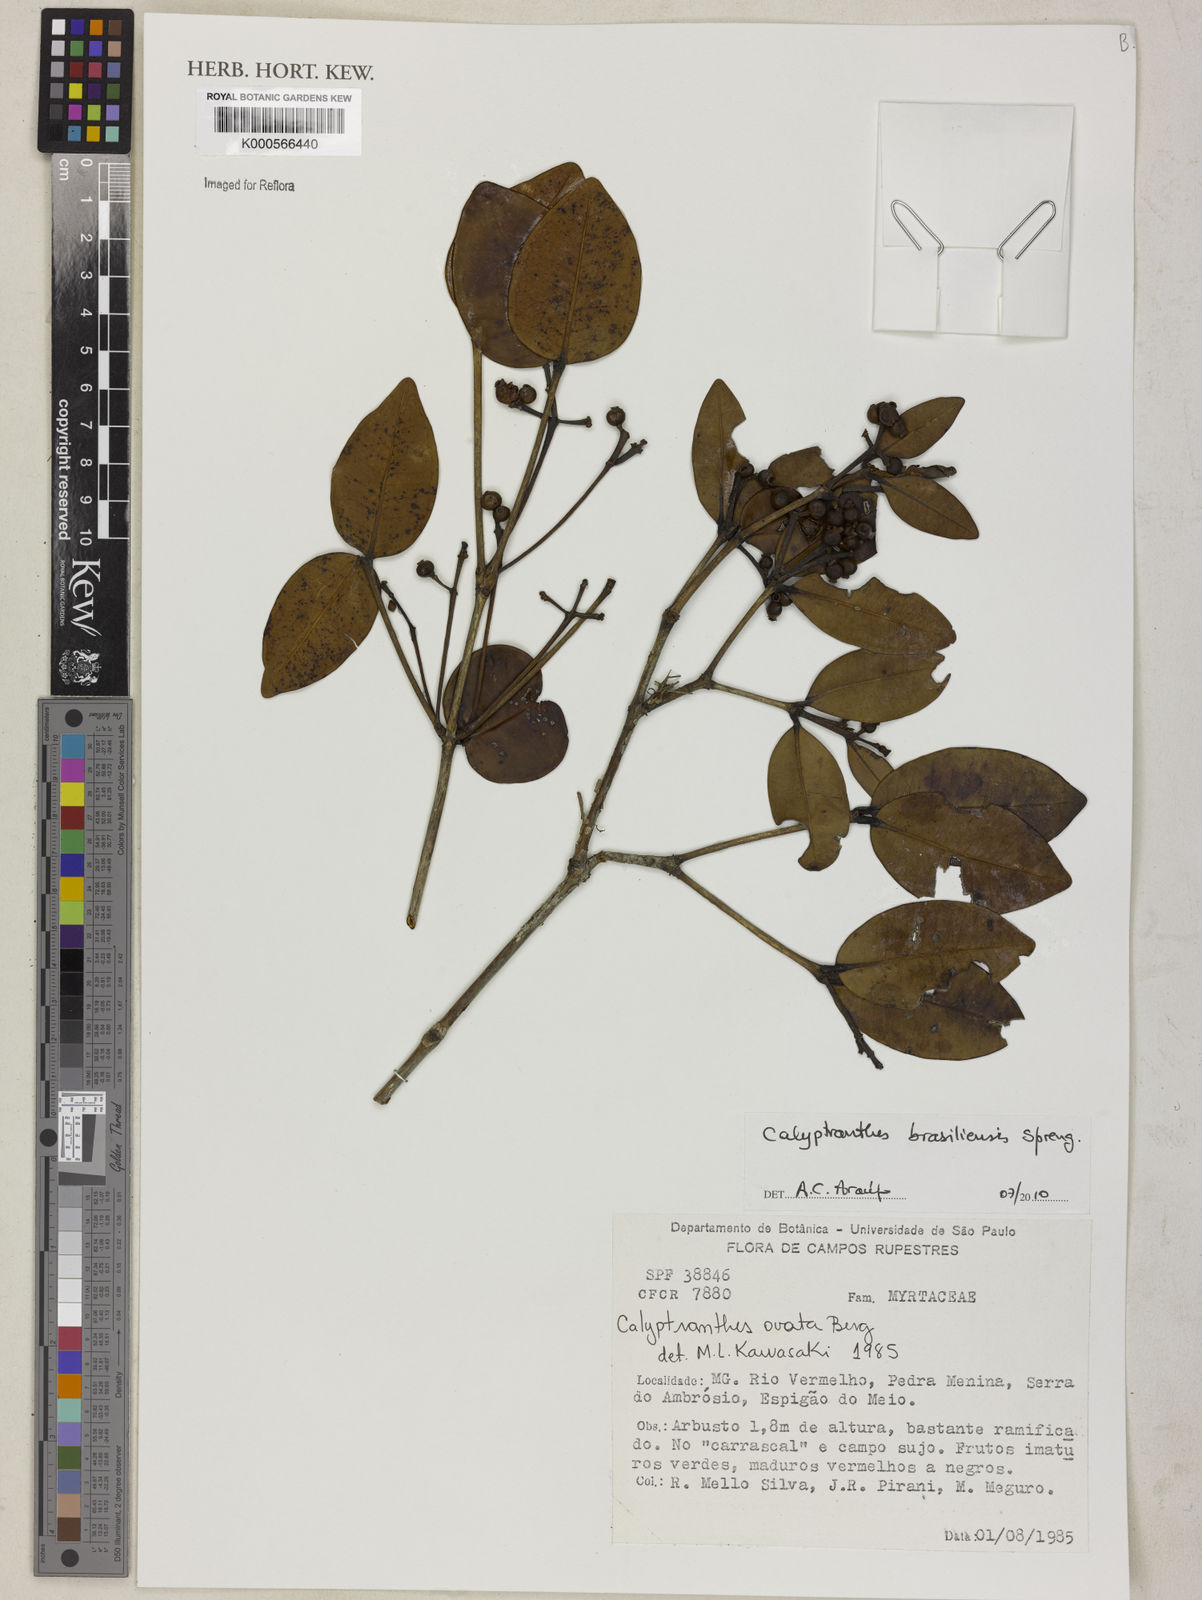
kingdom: Plantae
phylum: Tracheophyta
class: Magnoliopsida
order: Myrtales
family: Myrtaceae
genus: Myrcia
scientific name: Myrcia neobrasiliensis
